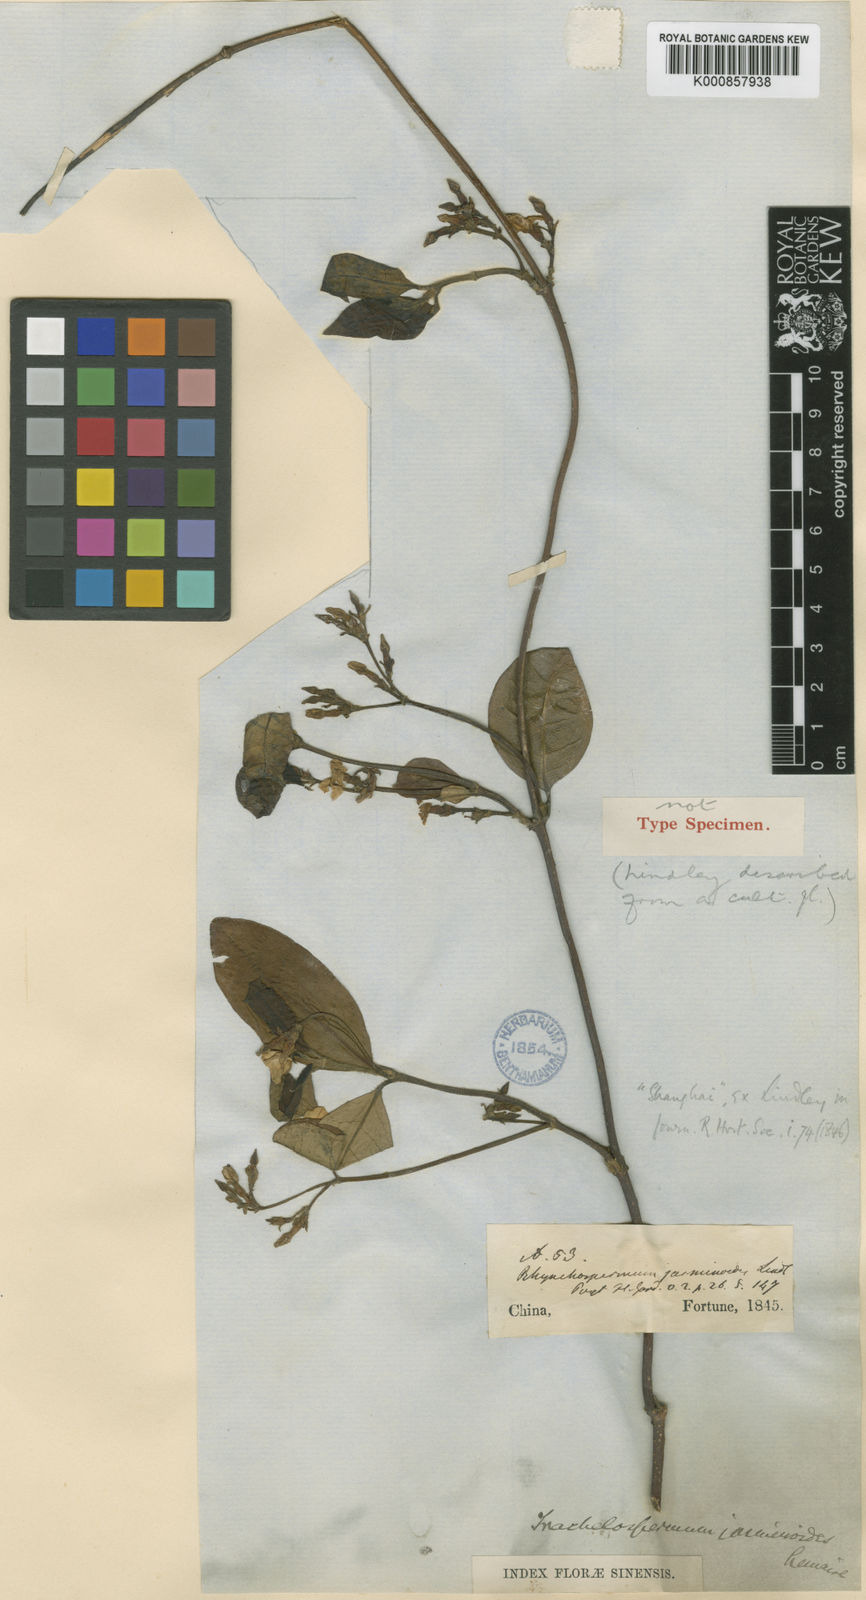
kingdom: Plantae
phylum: Tracheophyta
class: Magnoliopsida
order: Gentianales
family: Apocynaceae
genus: Trachelospermum
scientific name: Trachelospermum jasminoides
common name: Confederate jasmine
